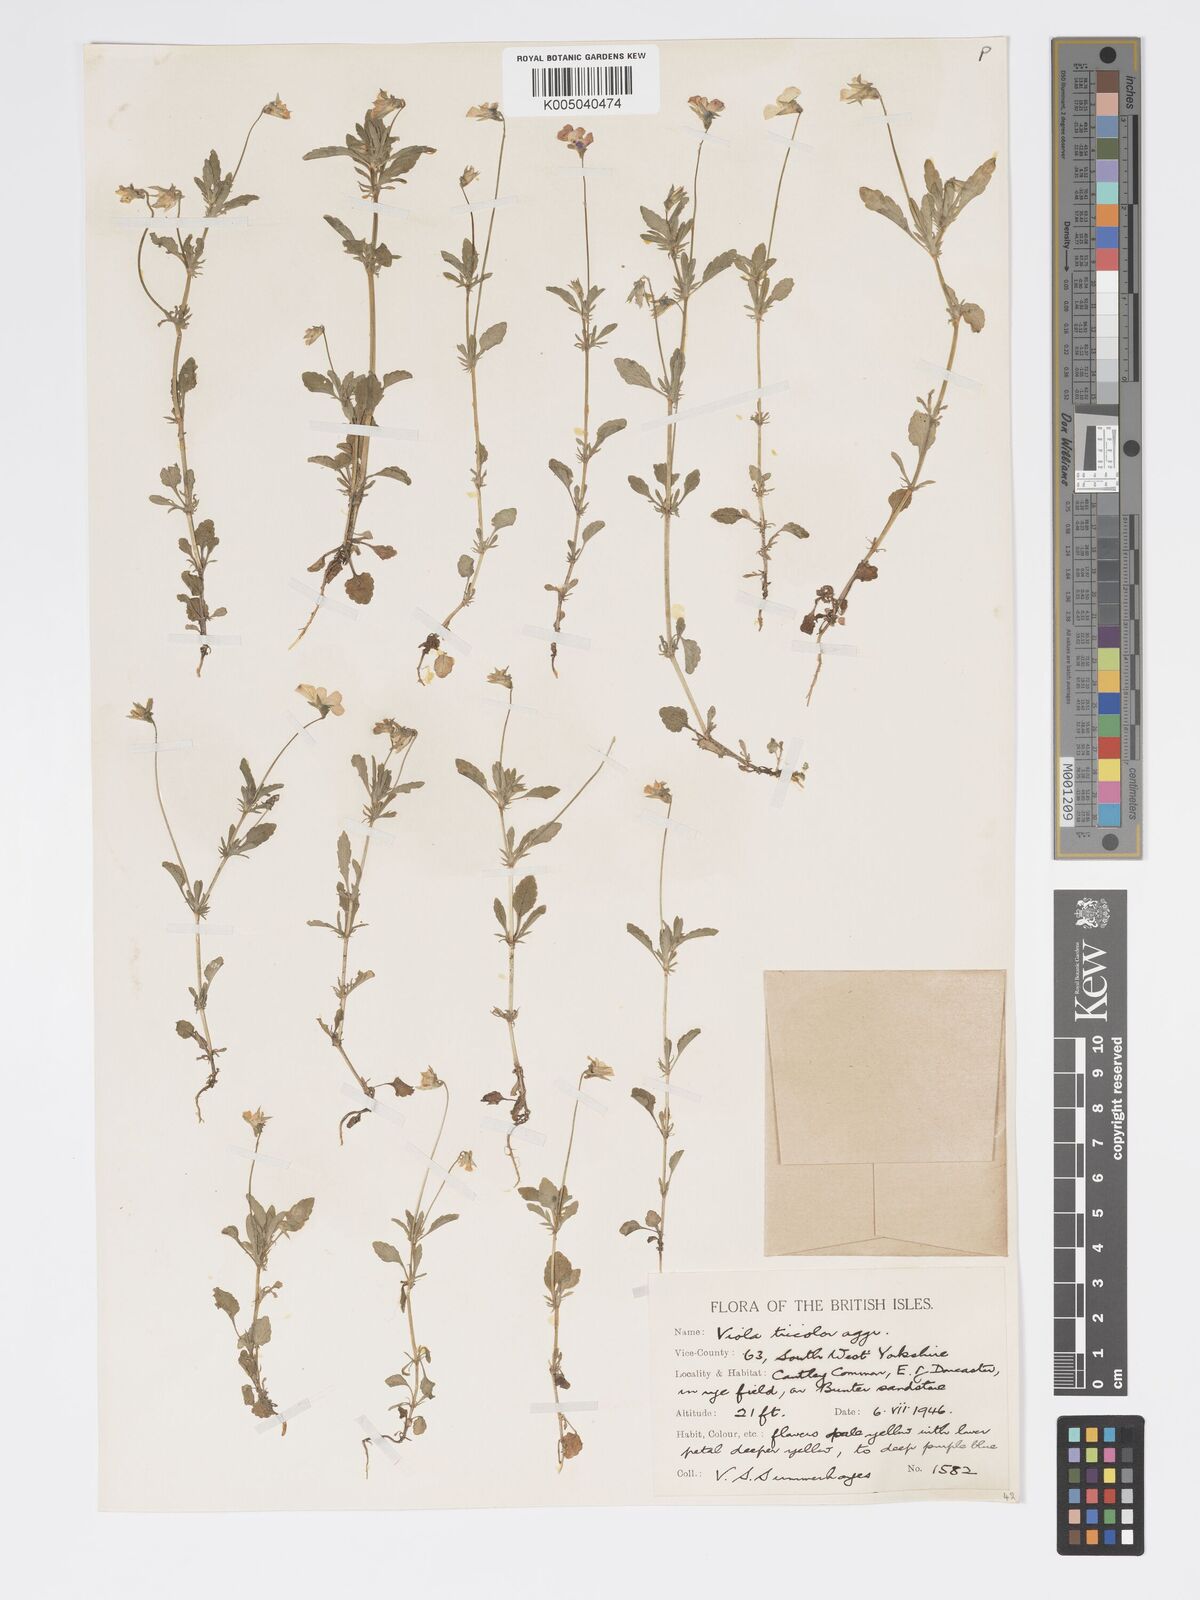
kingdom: Plantae
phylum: Tracheophyta
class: Magnoliopsida
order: Malpighiales
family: Violaceae
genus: Viola
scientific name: Viola arvensis
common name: Field pansy
